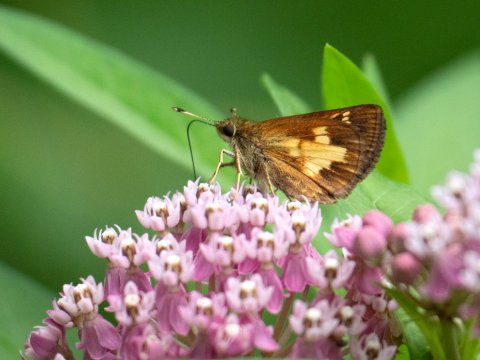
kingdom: Animalia
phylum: Arthropoda
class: Insecta
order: Lepidoptera
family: Hesperiidae
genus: Poanes
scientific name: Poanes massasoit
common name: Mulberry Wing
